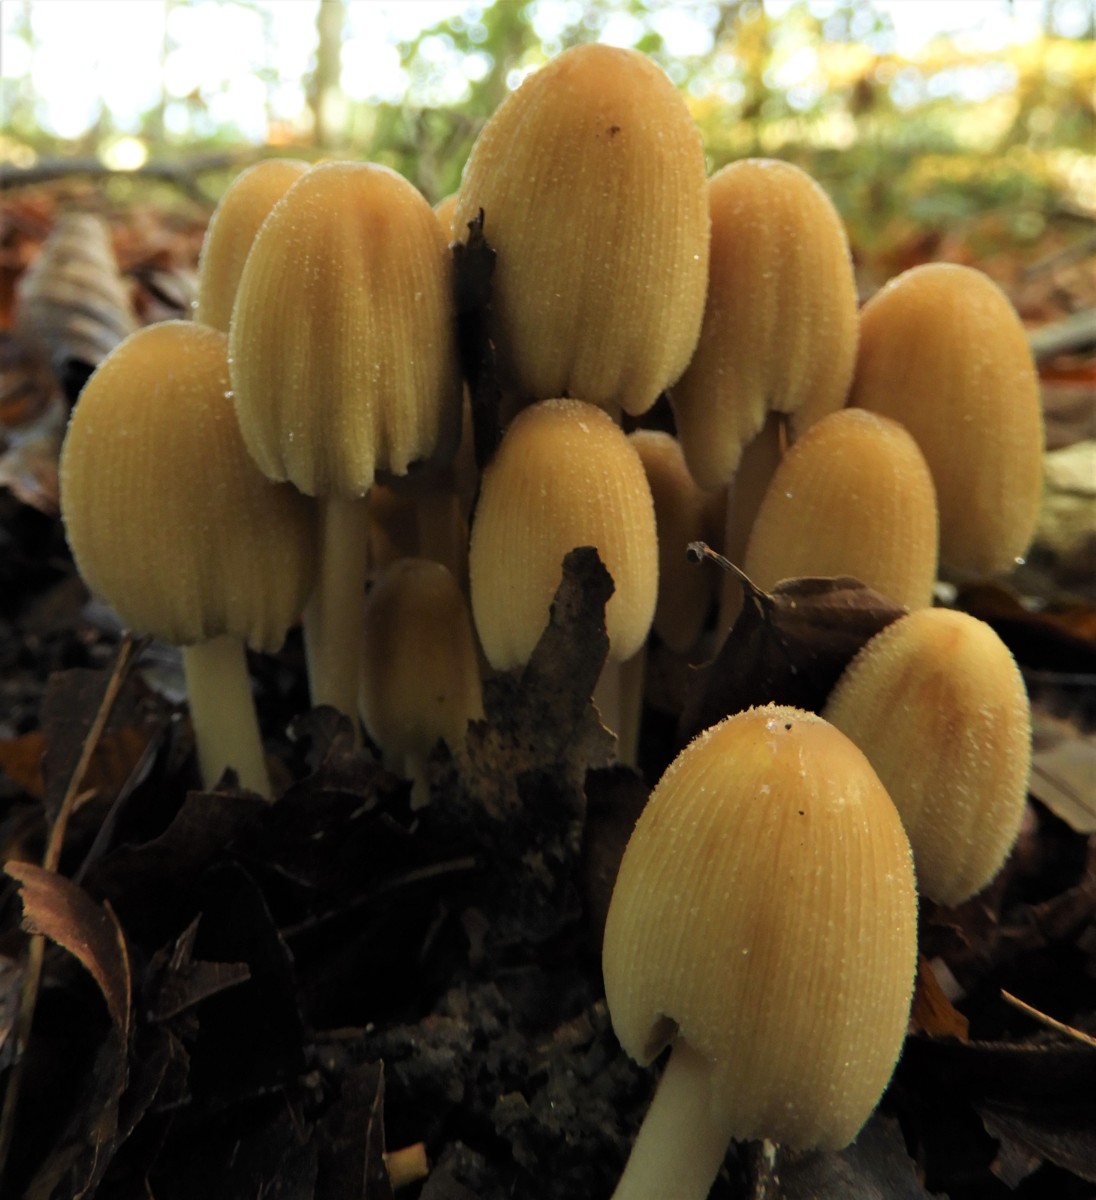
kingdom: Fungi
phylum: Basidiomycota
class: Agaricomycetes
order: Agaricales
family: Psathyrellaceae
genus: Coprinellus
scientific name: Coprinellus micaceus
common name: glimmer-blækhat
